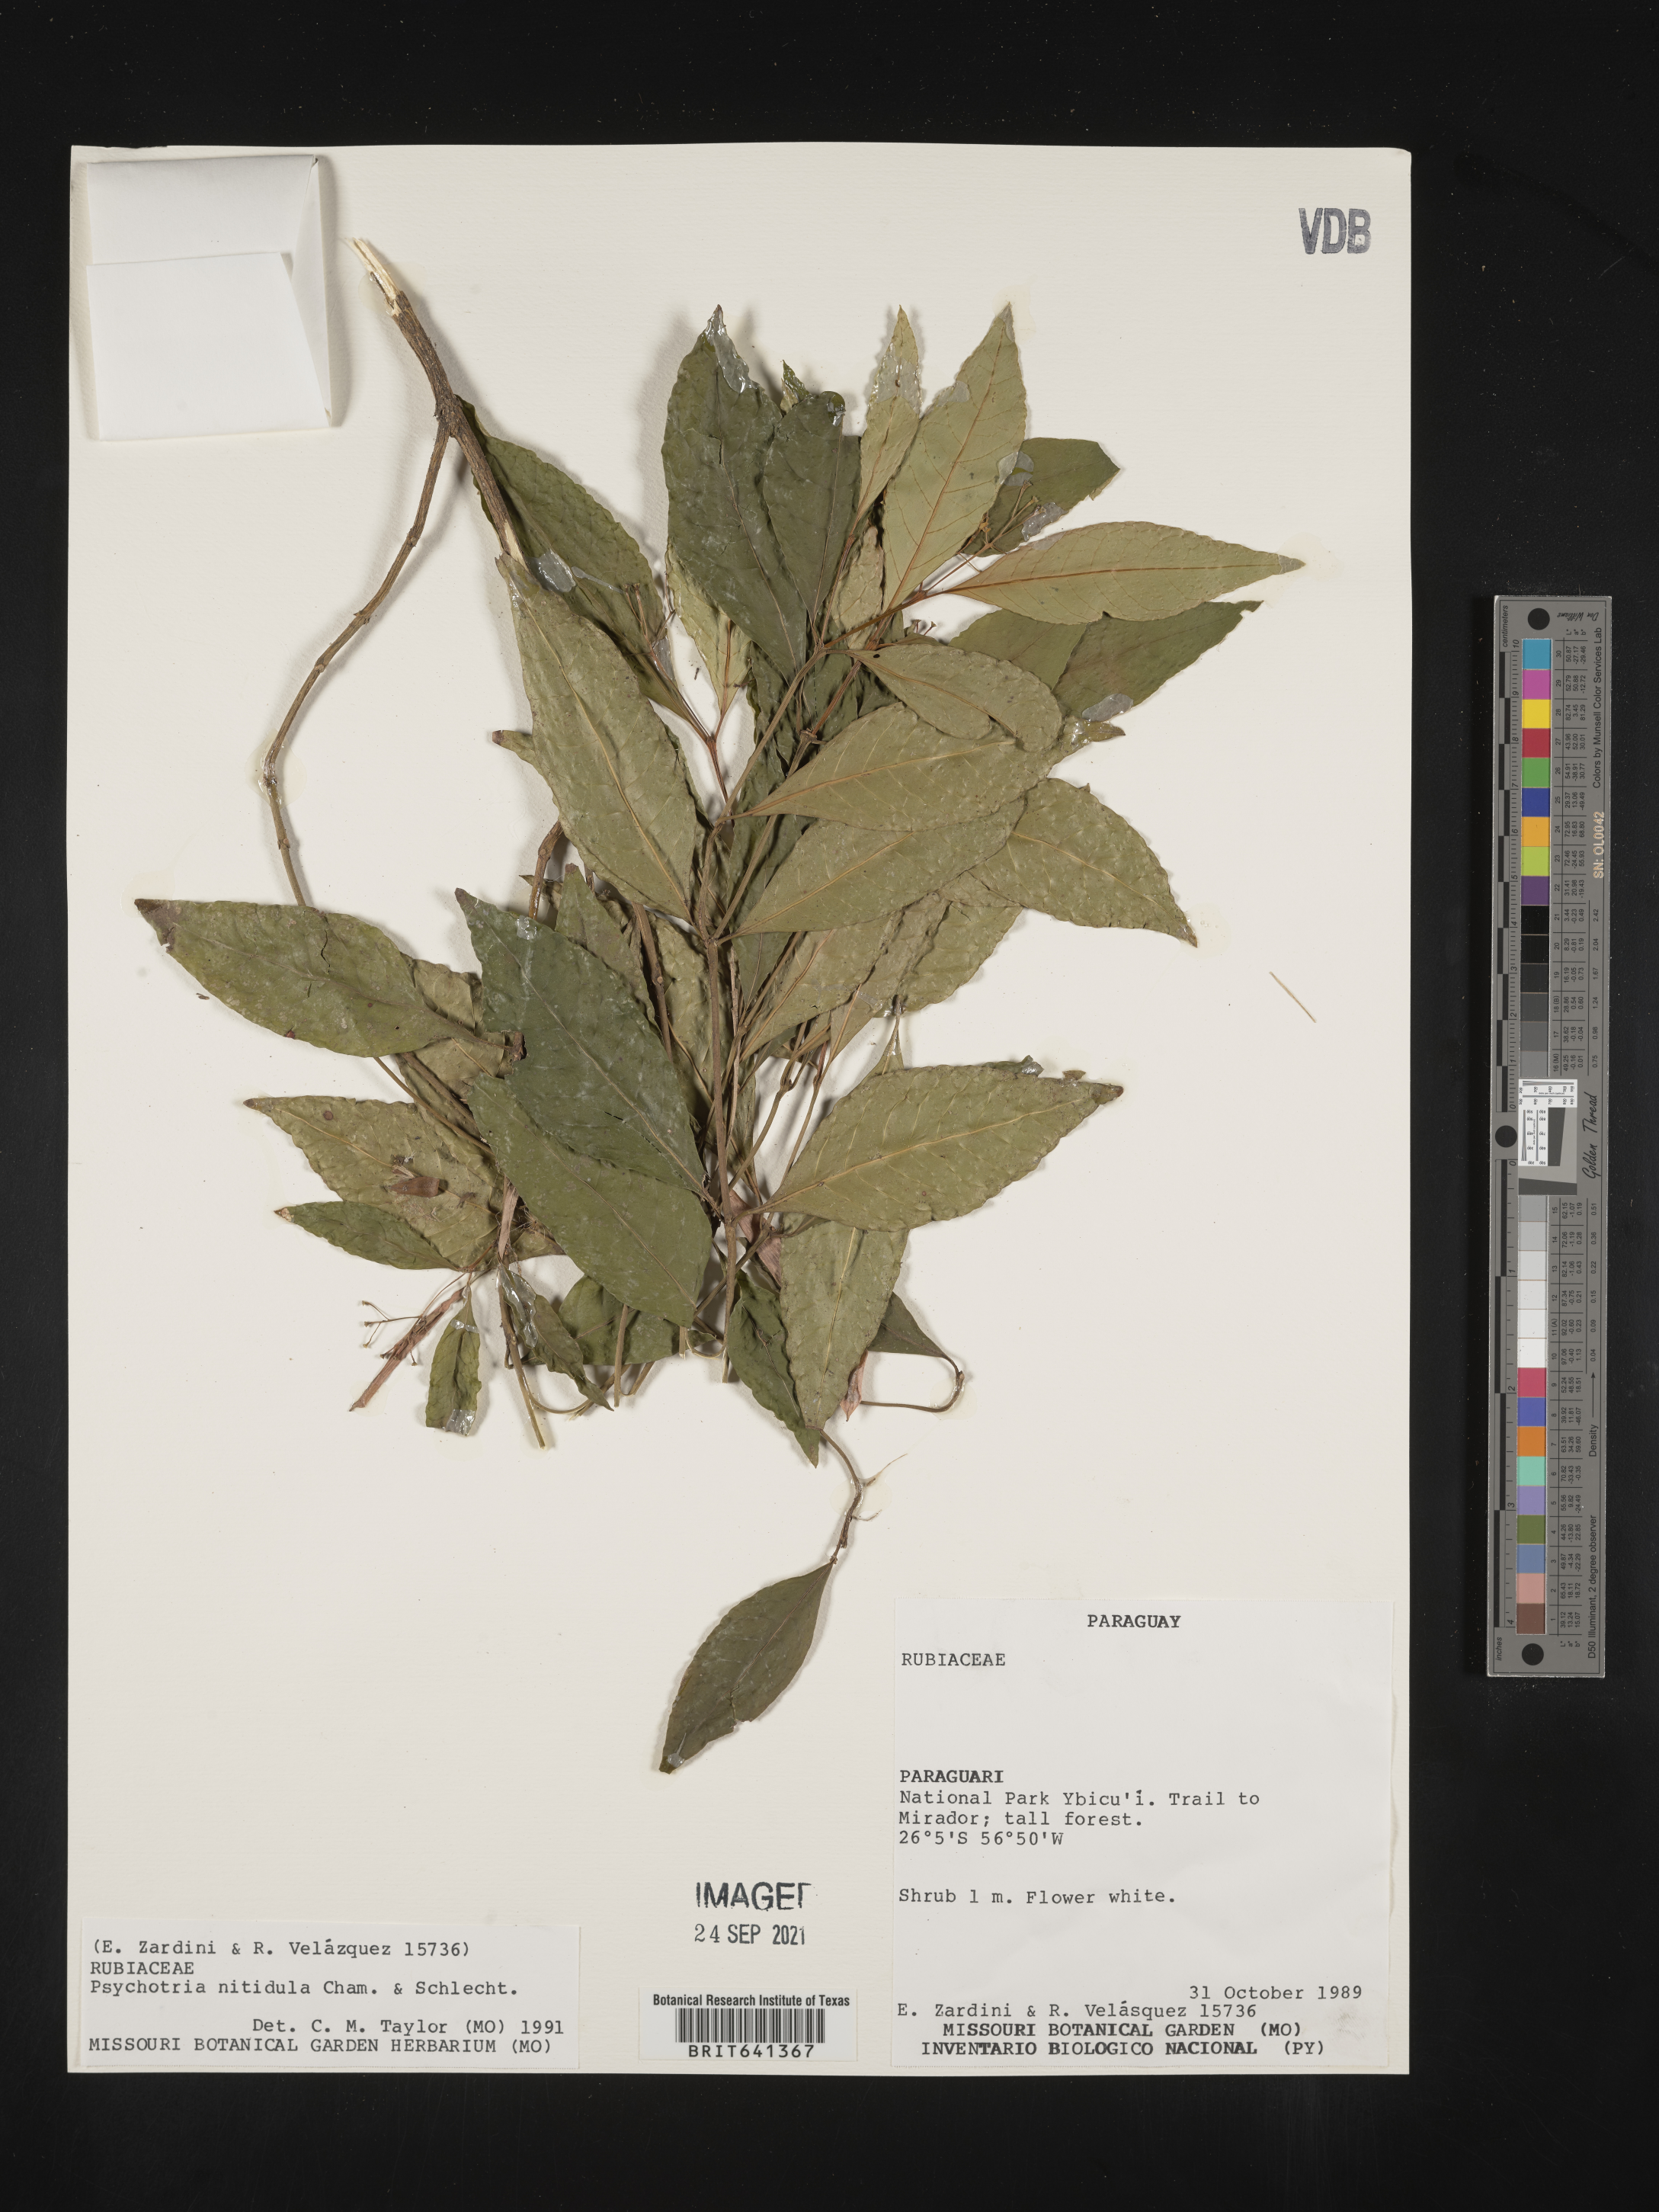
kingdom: Plantae
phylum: Tracheophyta
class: Magnoliopsida
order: Gentianales
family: Rubiaceae
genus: Psychotria
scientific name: Psychotria
